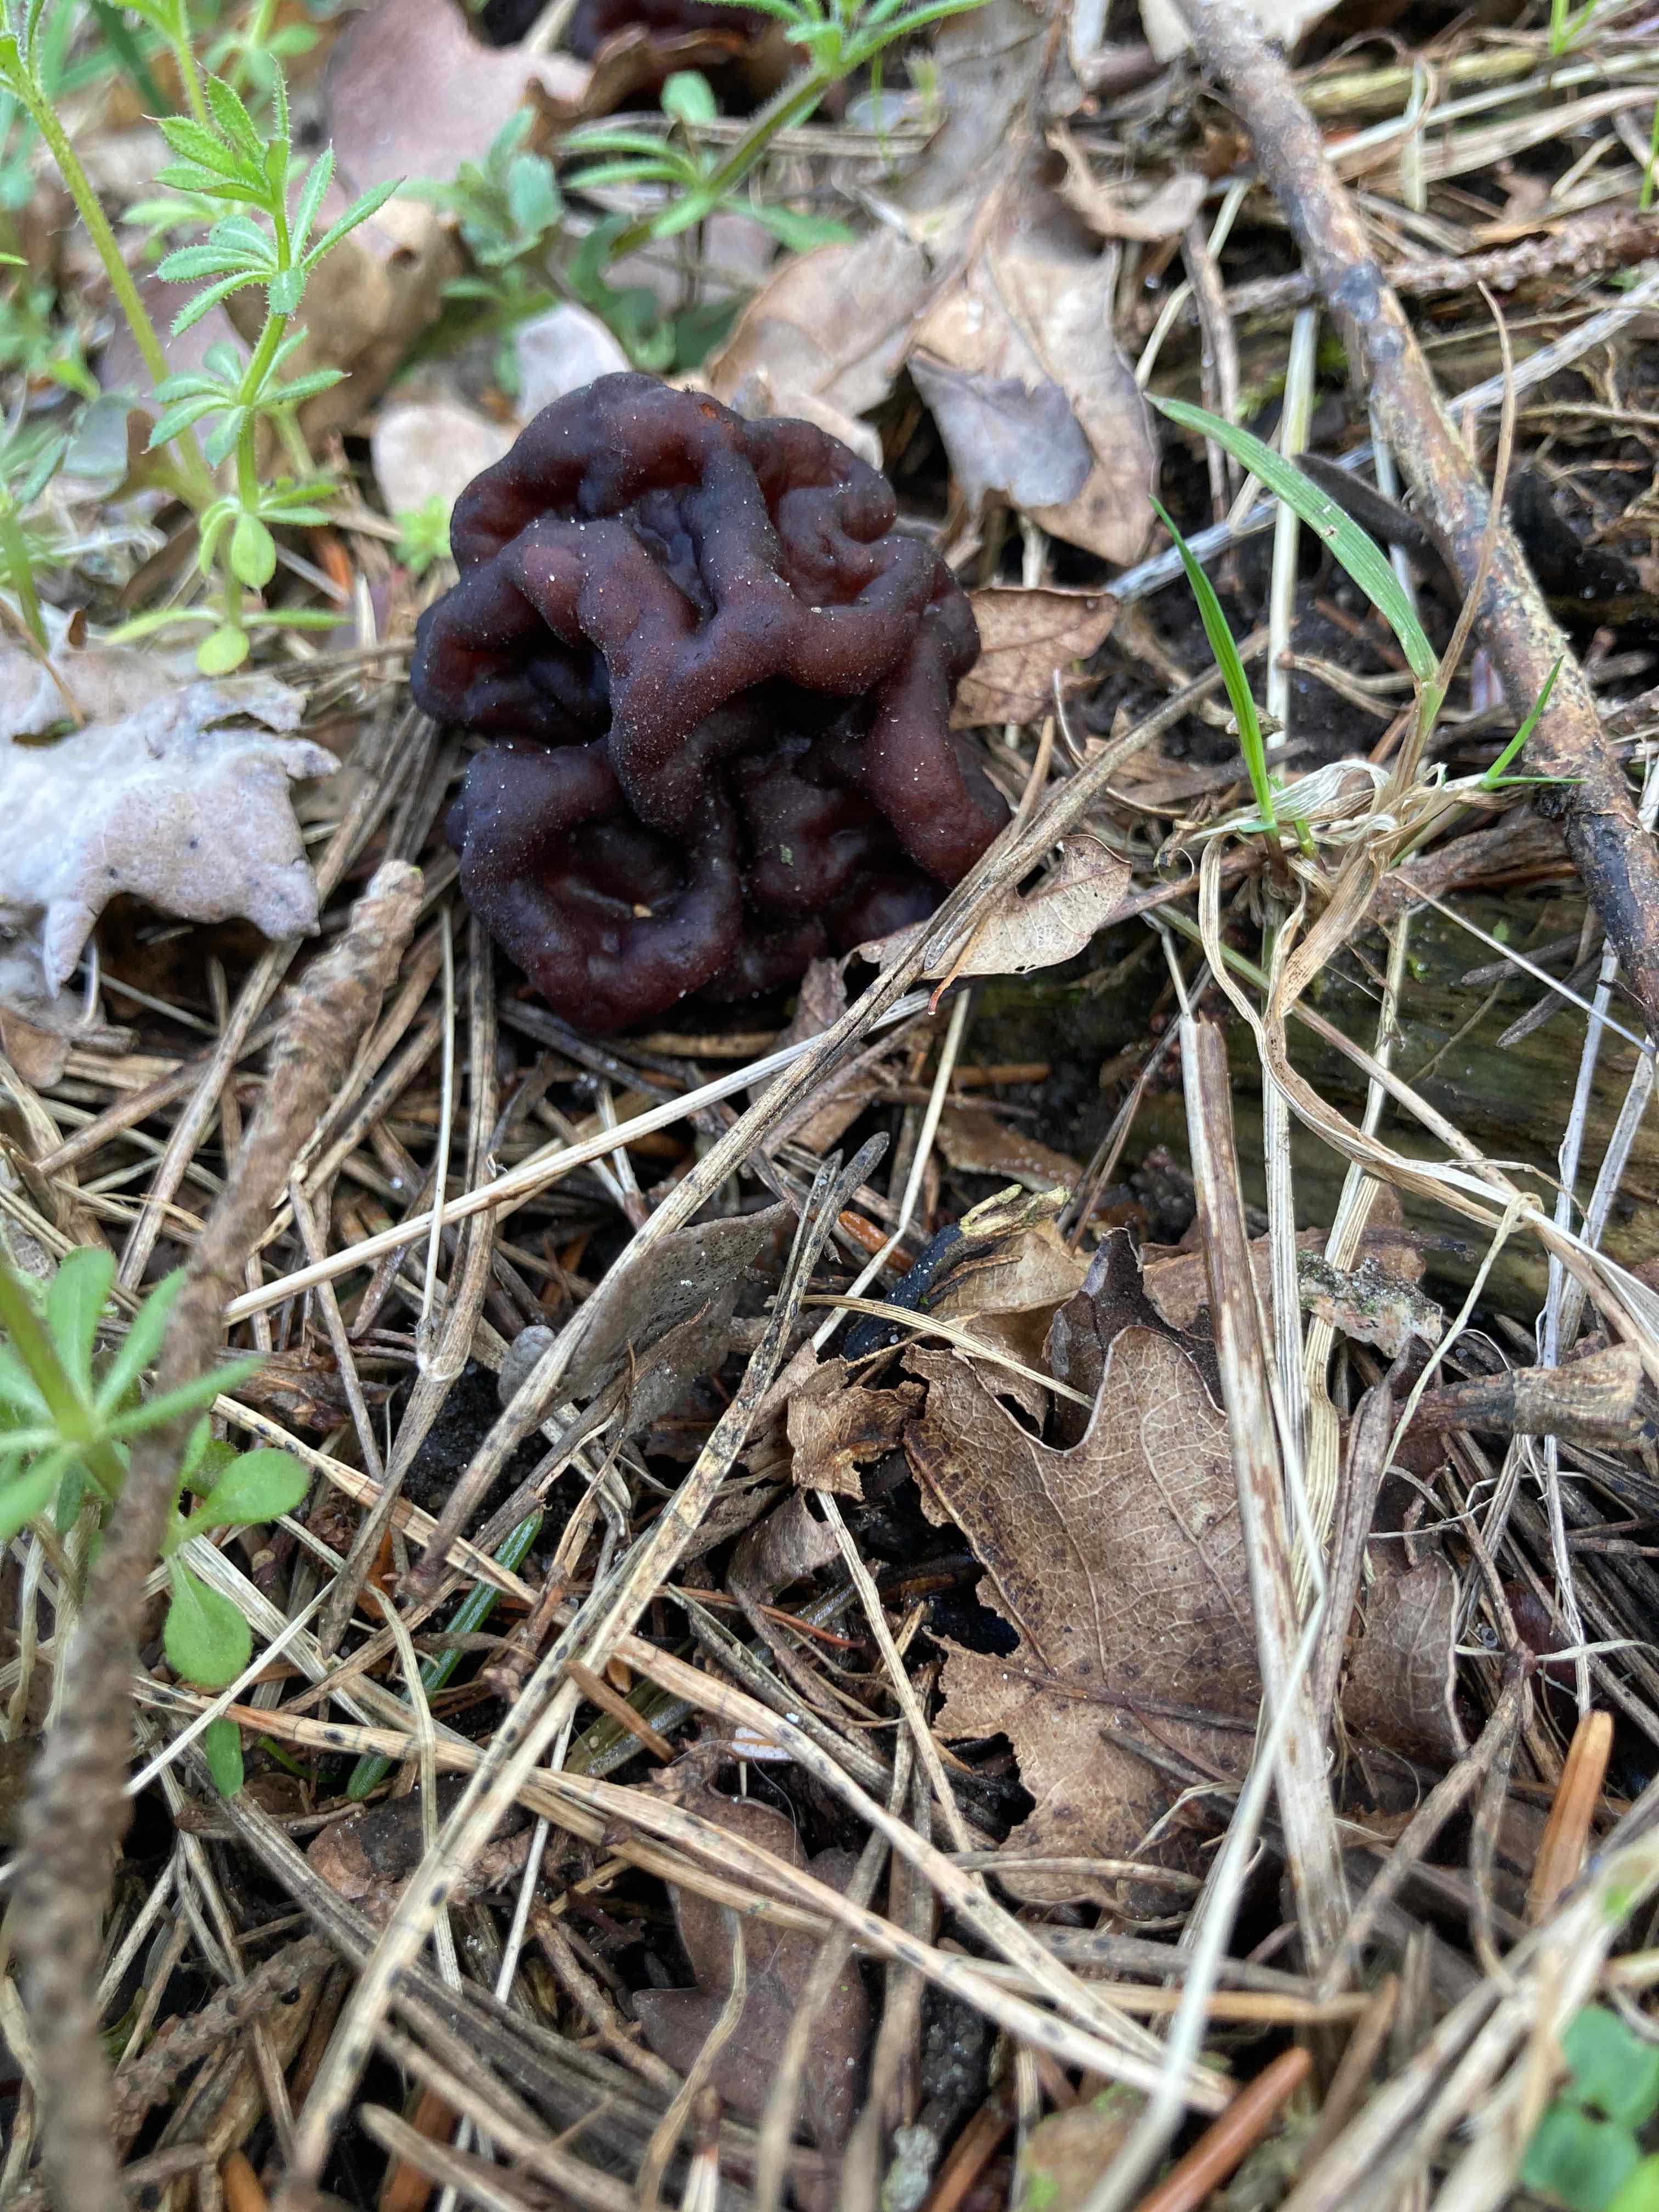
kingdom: Fungi
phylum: Ascomycota
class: Pezizomycetes
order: Pezizales
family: Discinaceae
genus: Gyromitra
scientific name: Gyromitra esculenta
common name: ægte stenmorkel
